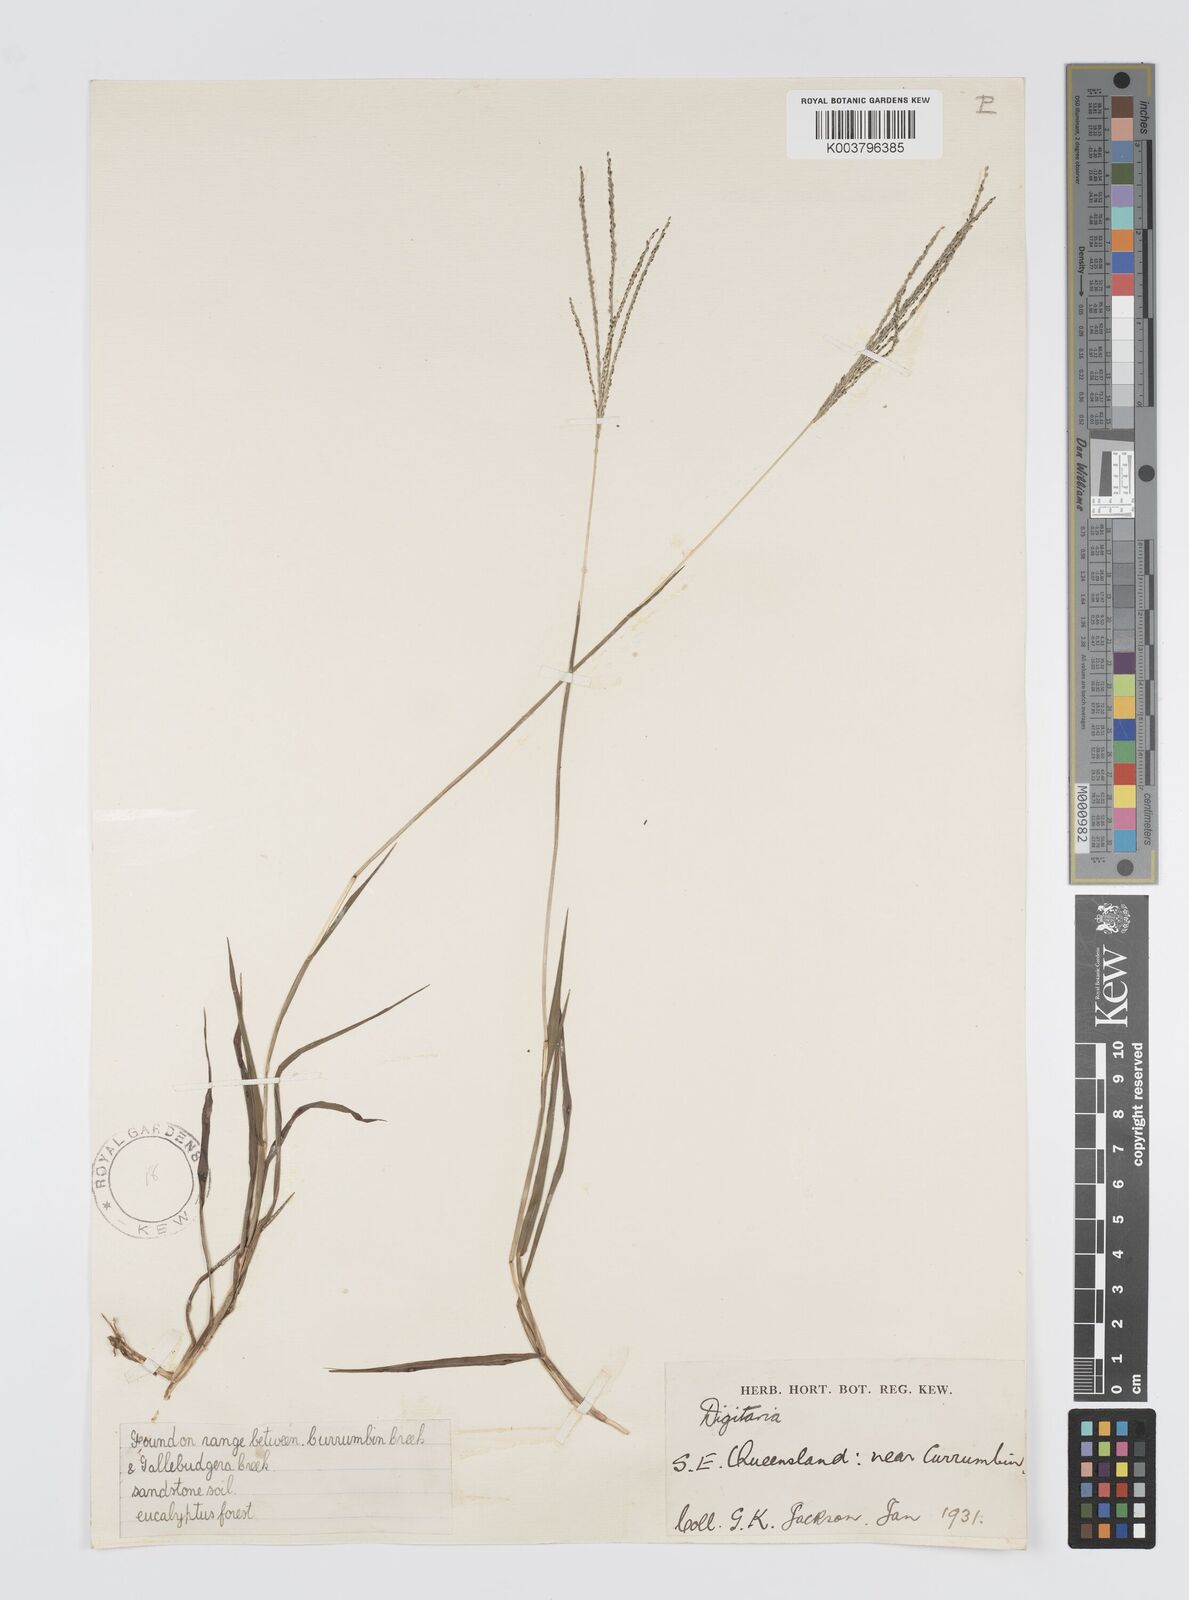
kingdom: Plantae
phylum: Tracheophyta
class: Liliopsida
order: Poales
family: Poaceae
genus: Digitaria
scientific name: Digitaria violascens
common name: Violet crabgrass
